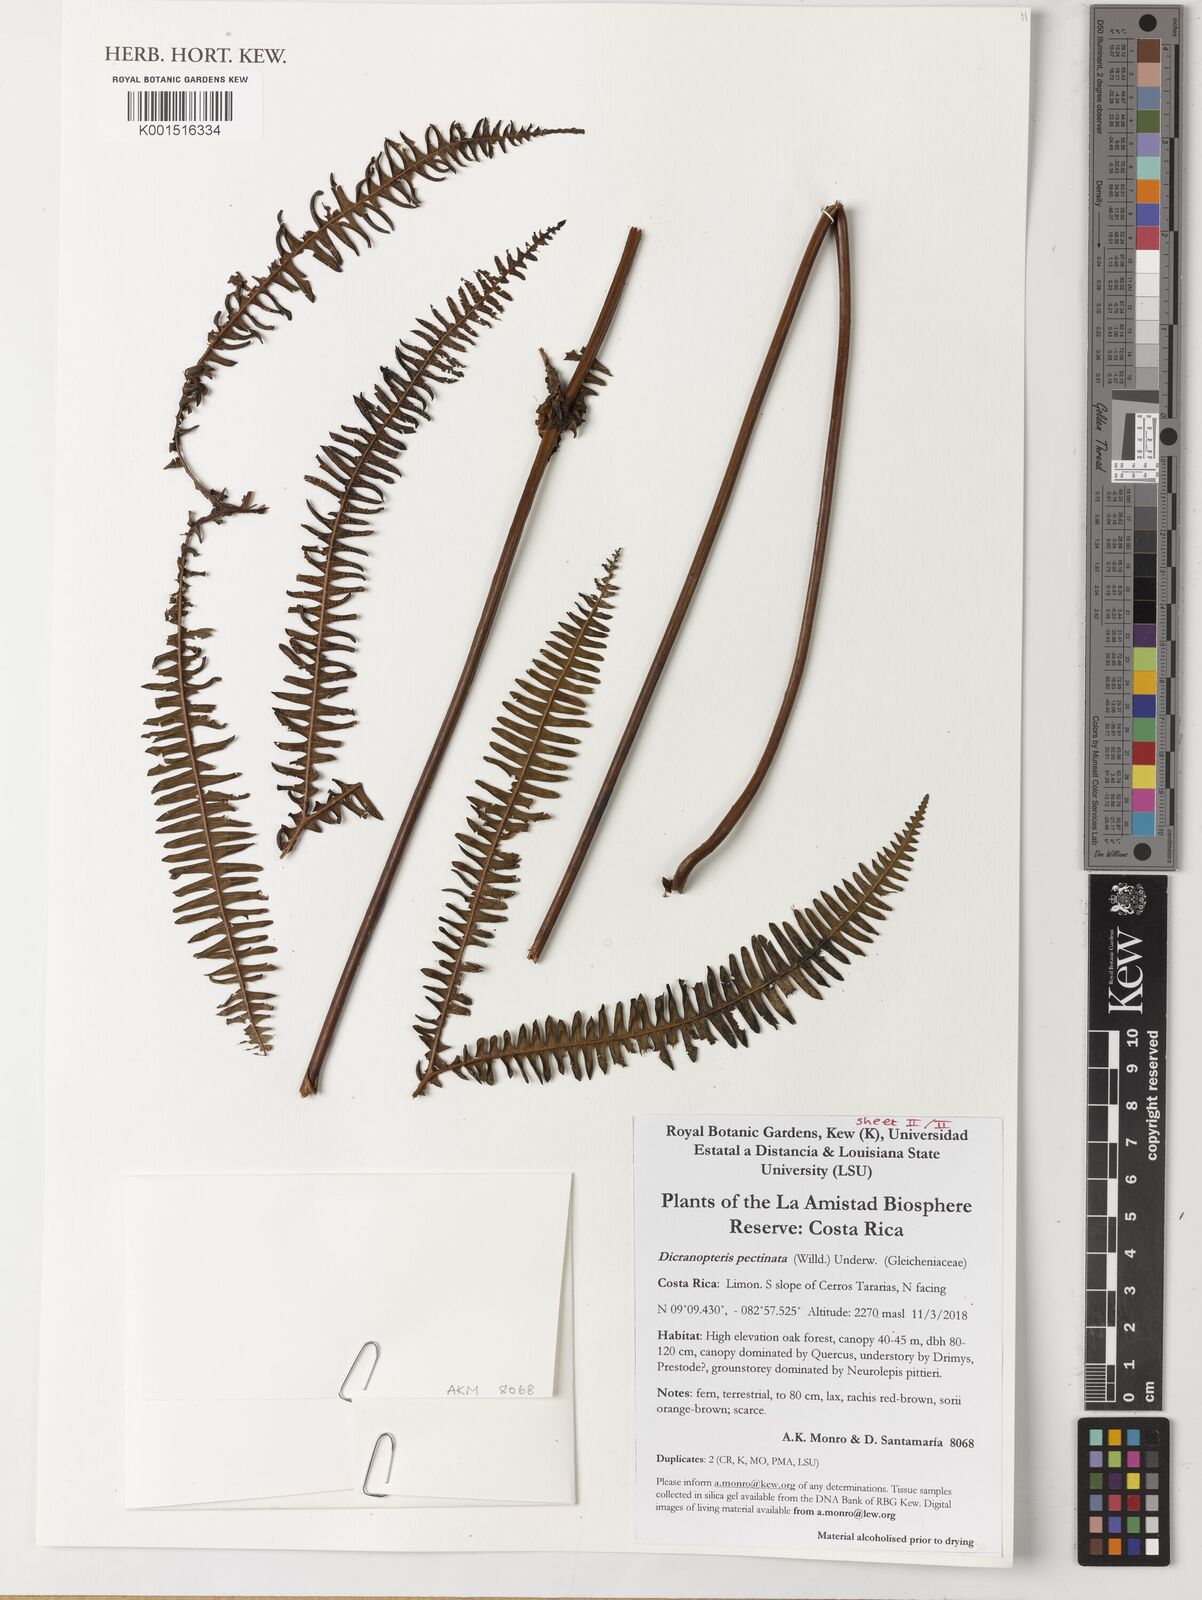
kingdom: Plantae
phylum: Tracheophyta
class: Polypodiopsida
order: Gleicheniales
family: Gleicheniaceae
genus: Gleichenella
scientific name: Gleichenella pectinata
